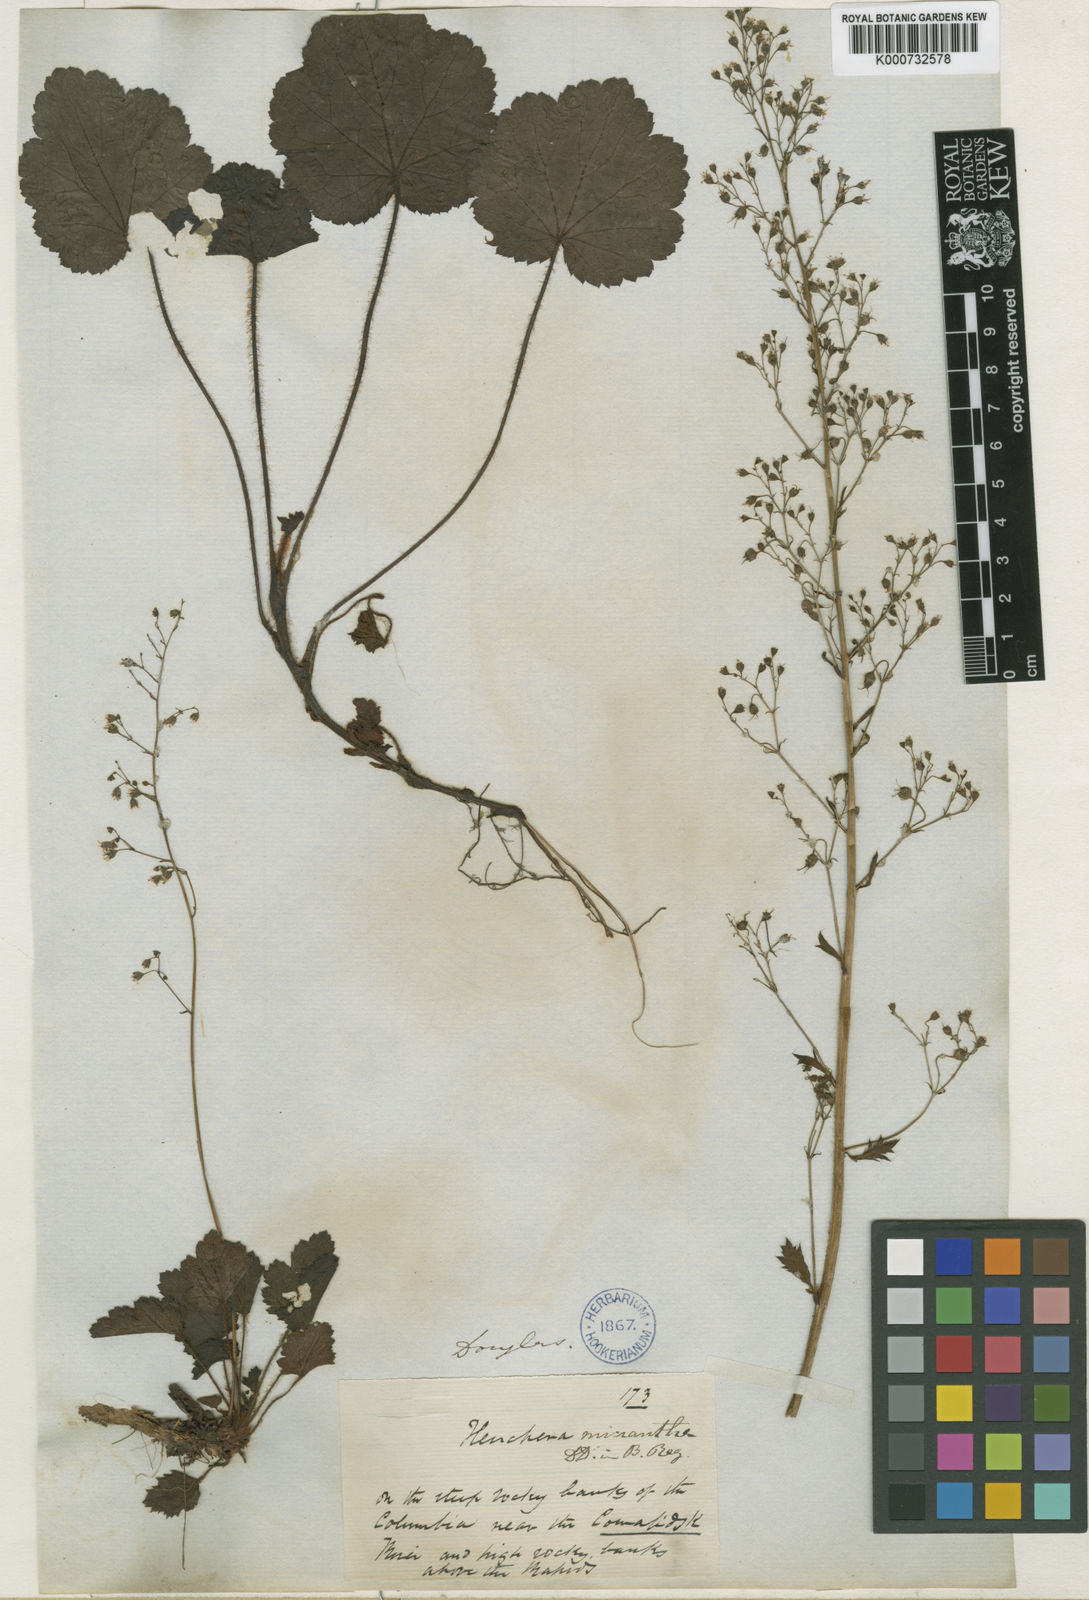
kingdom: Plantae
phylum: Tracheophyta
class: Magnoliopsida
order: Saxifragales
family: Saxifragaceae
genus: Heuchera
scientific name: Heuchera micrantha
